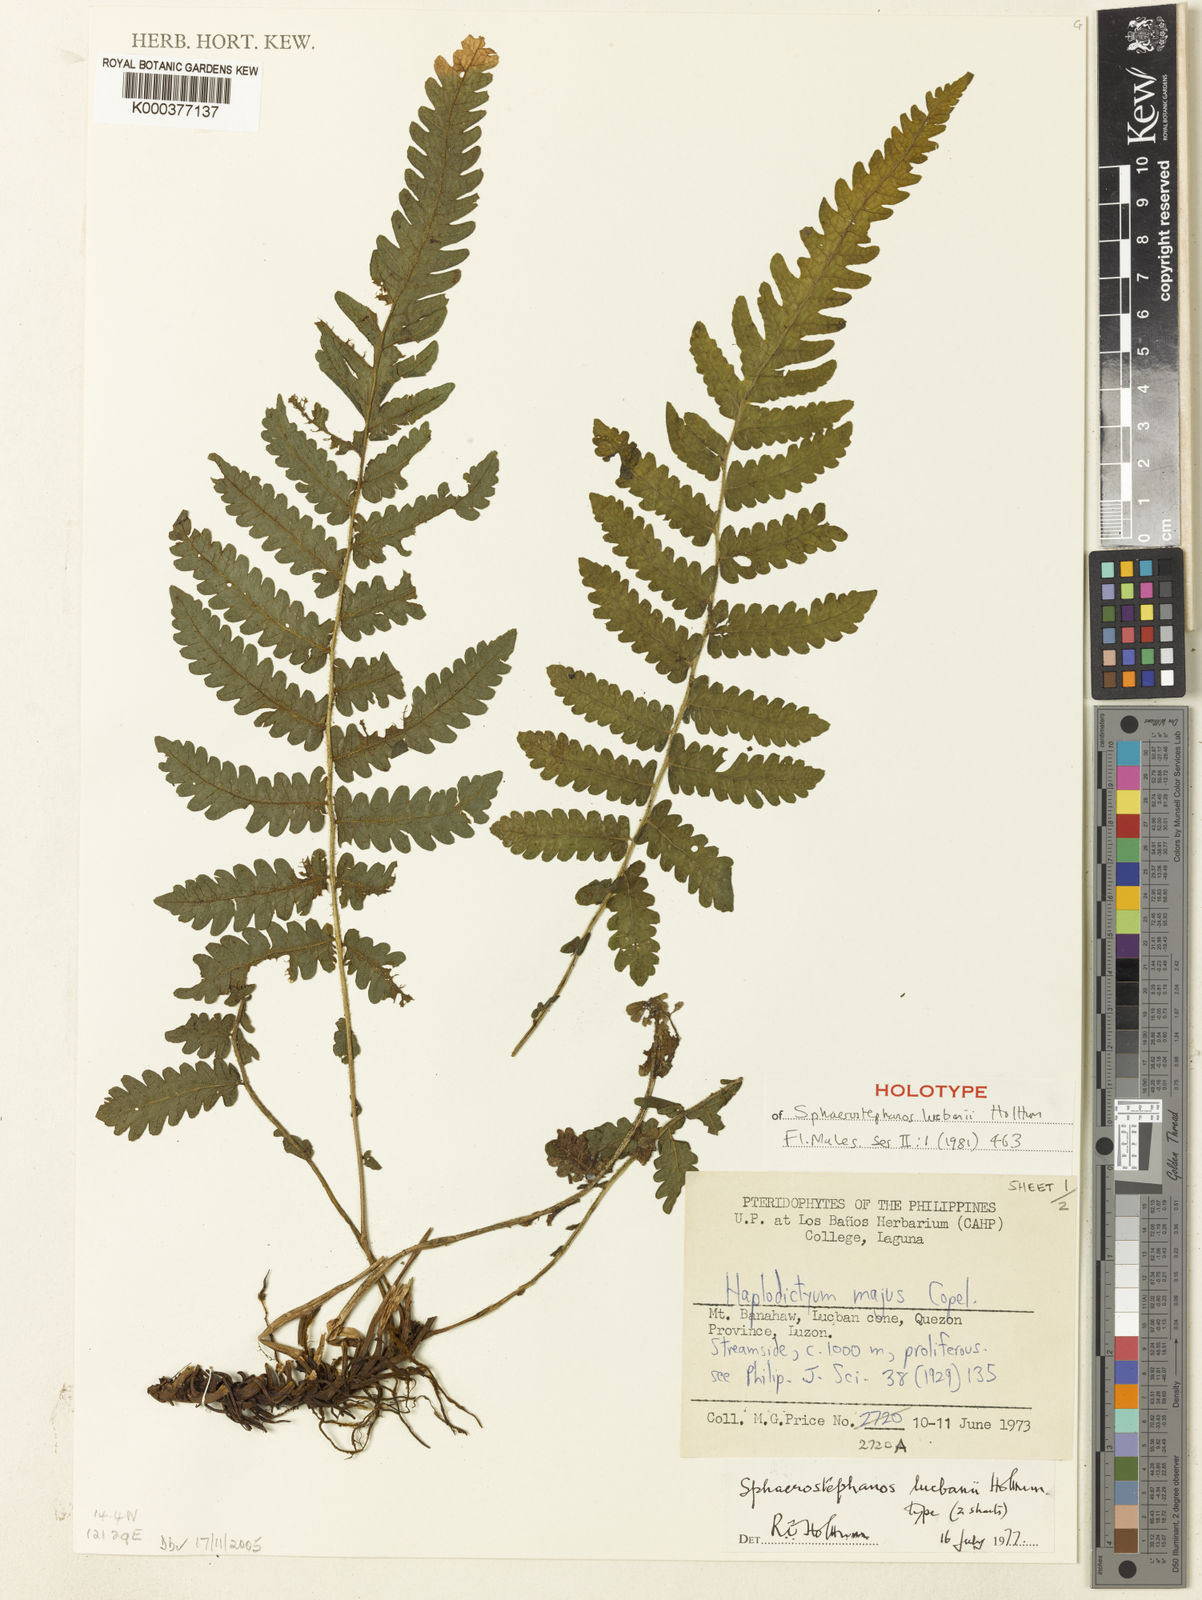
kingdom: Plantae
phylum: Tracheophyta
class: Polypodiopsida
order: Polypodiales
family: Thelypteridaceae
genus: Sphaerostephanos
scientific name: Sphaerostephanos diminutus
